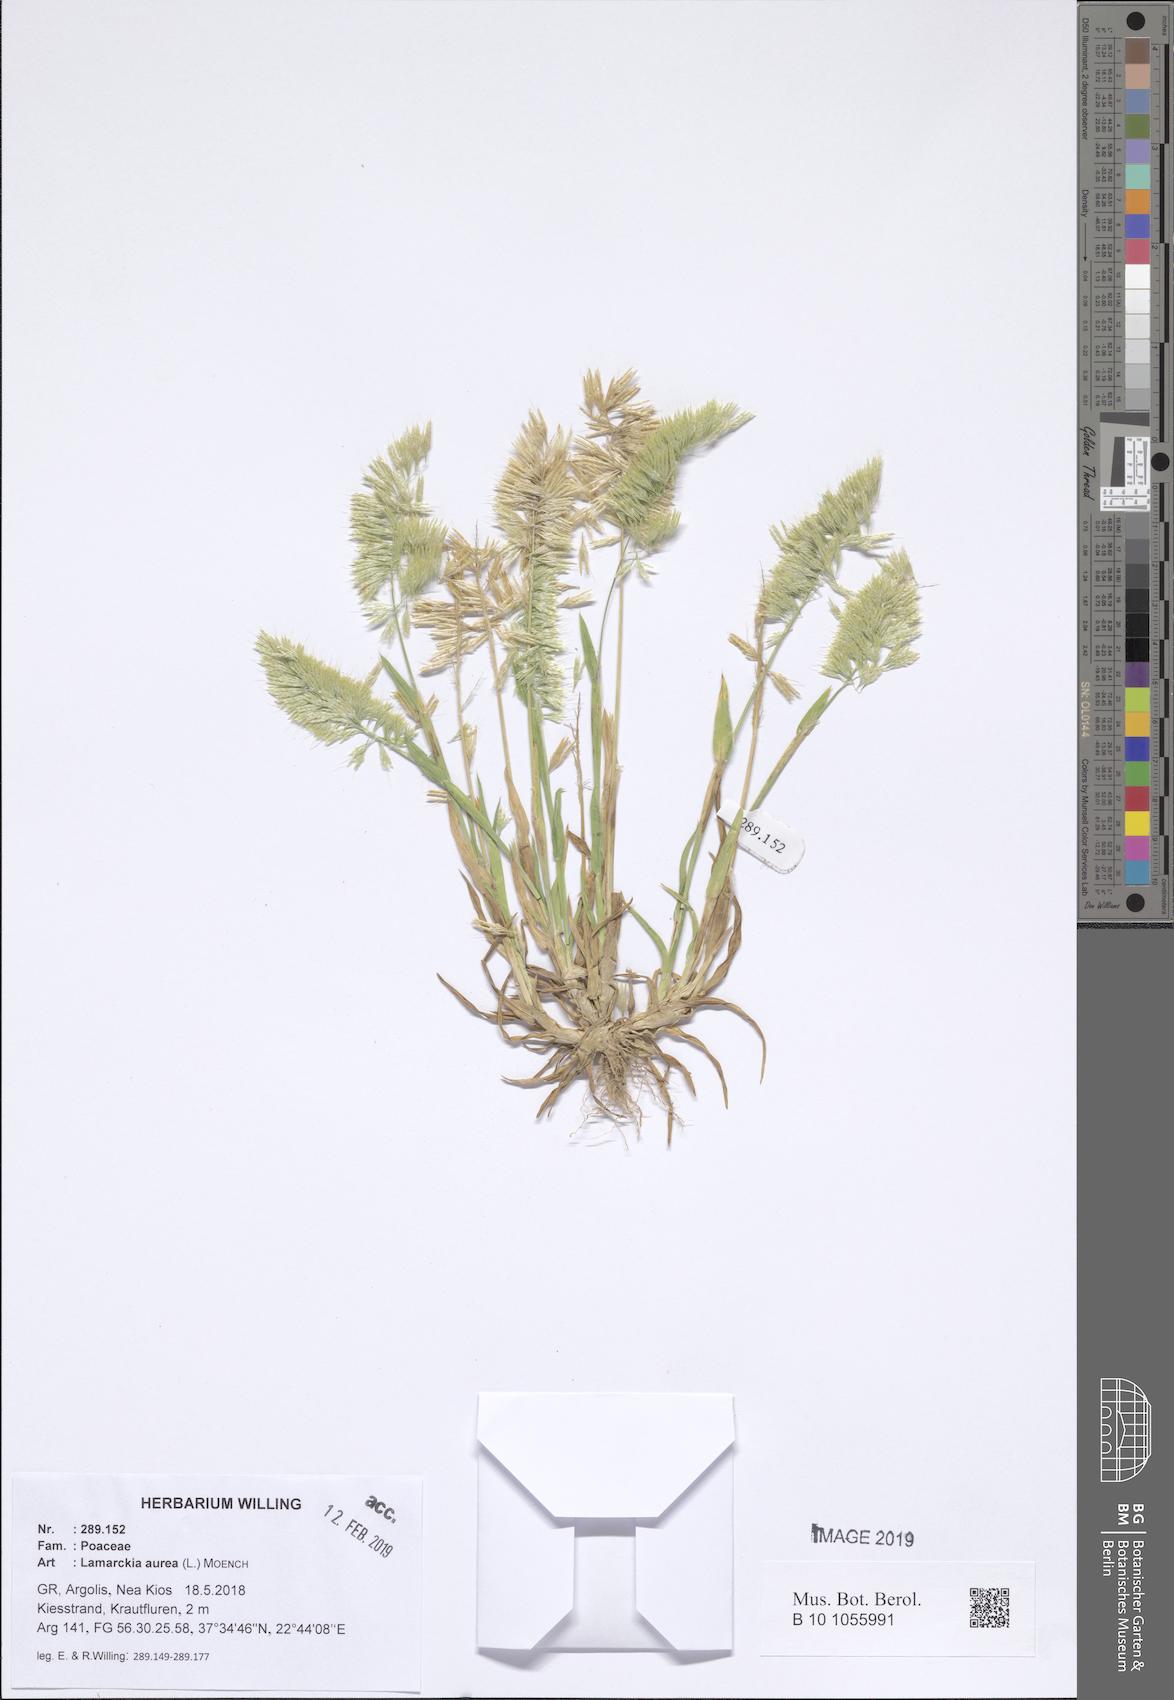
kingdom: Plantae
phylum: Tracheophyta
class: Liliopsida
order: Poales
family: Poaceae
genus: Lamarckia
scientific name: Lamarckia aurea
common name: Golden dog's-tail
